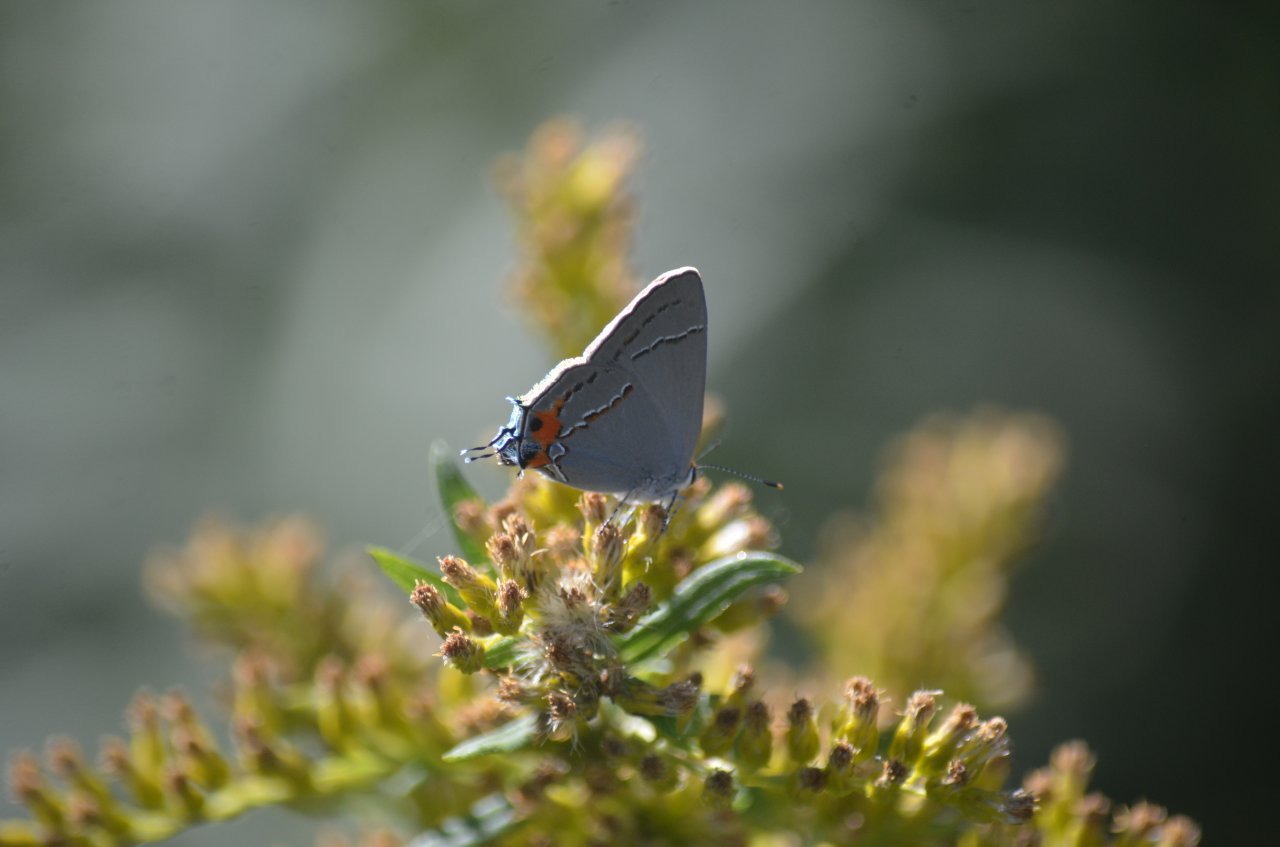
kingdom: Animalia
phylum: Arthropoda
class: Insecta
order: Lepidoptera
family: Lycaenidae
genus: Strymon
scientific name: Strymon melinus
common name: Gray Hairstreak
